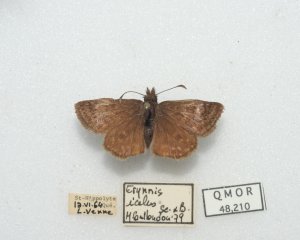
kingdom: Animalia
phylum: Arthropoda
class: Insecta
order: Lepidoptera
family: Hesperiidae
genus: Erynnis
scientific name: Erynnis icelus
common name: Dreamy Duskywing
